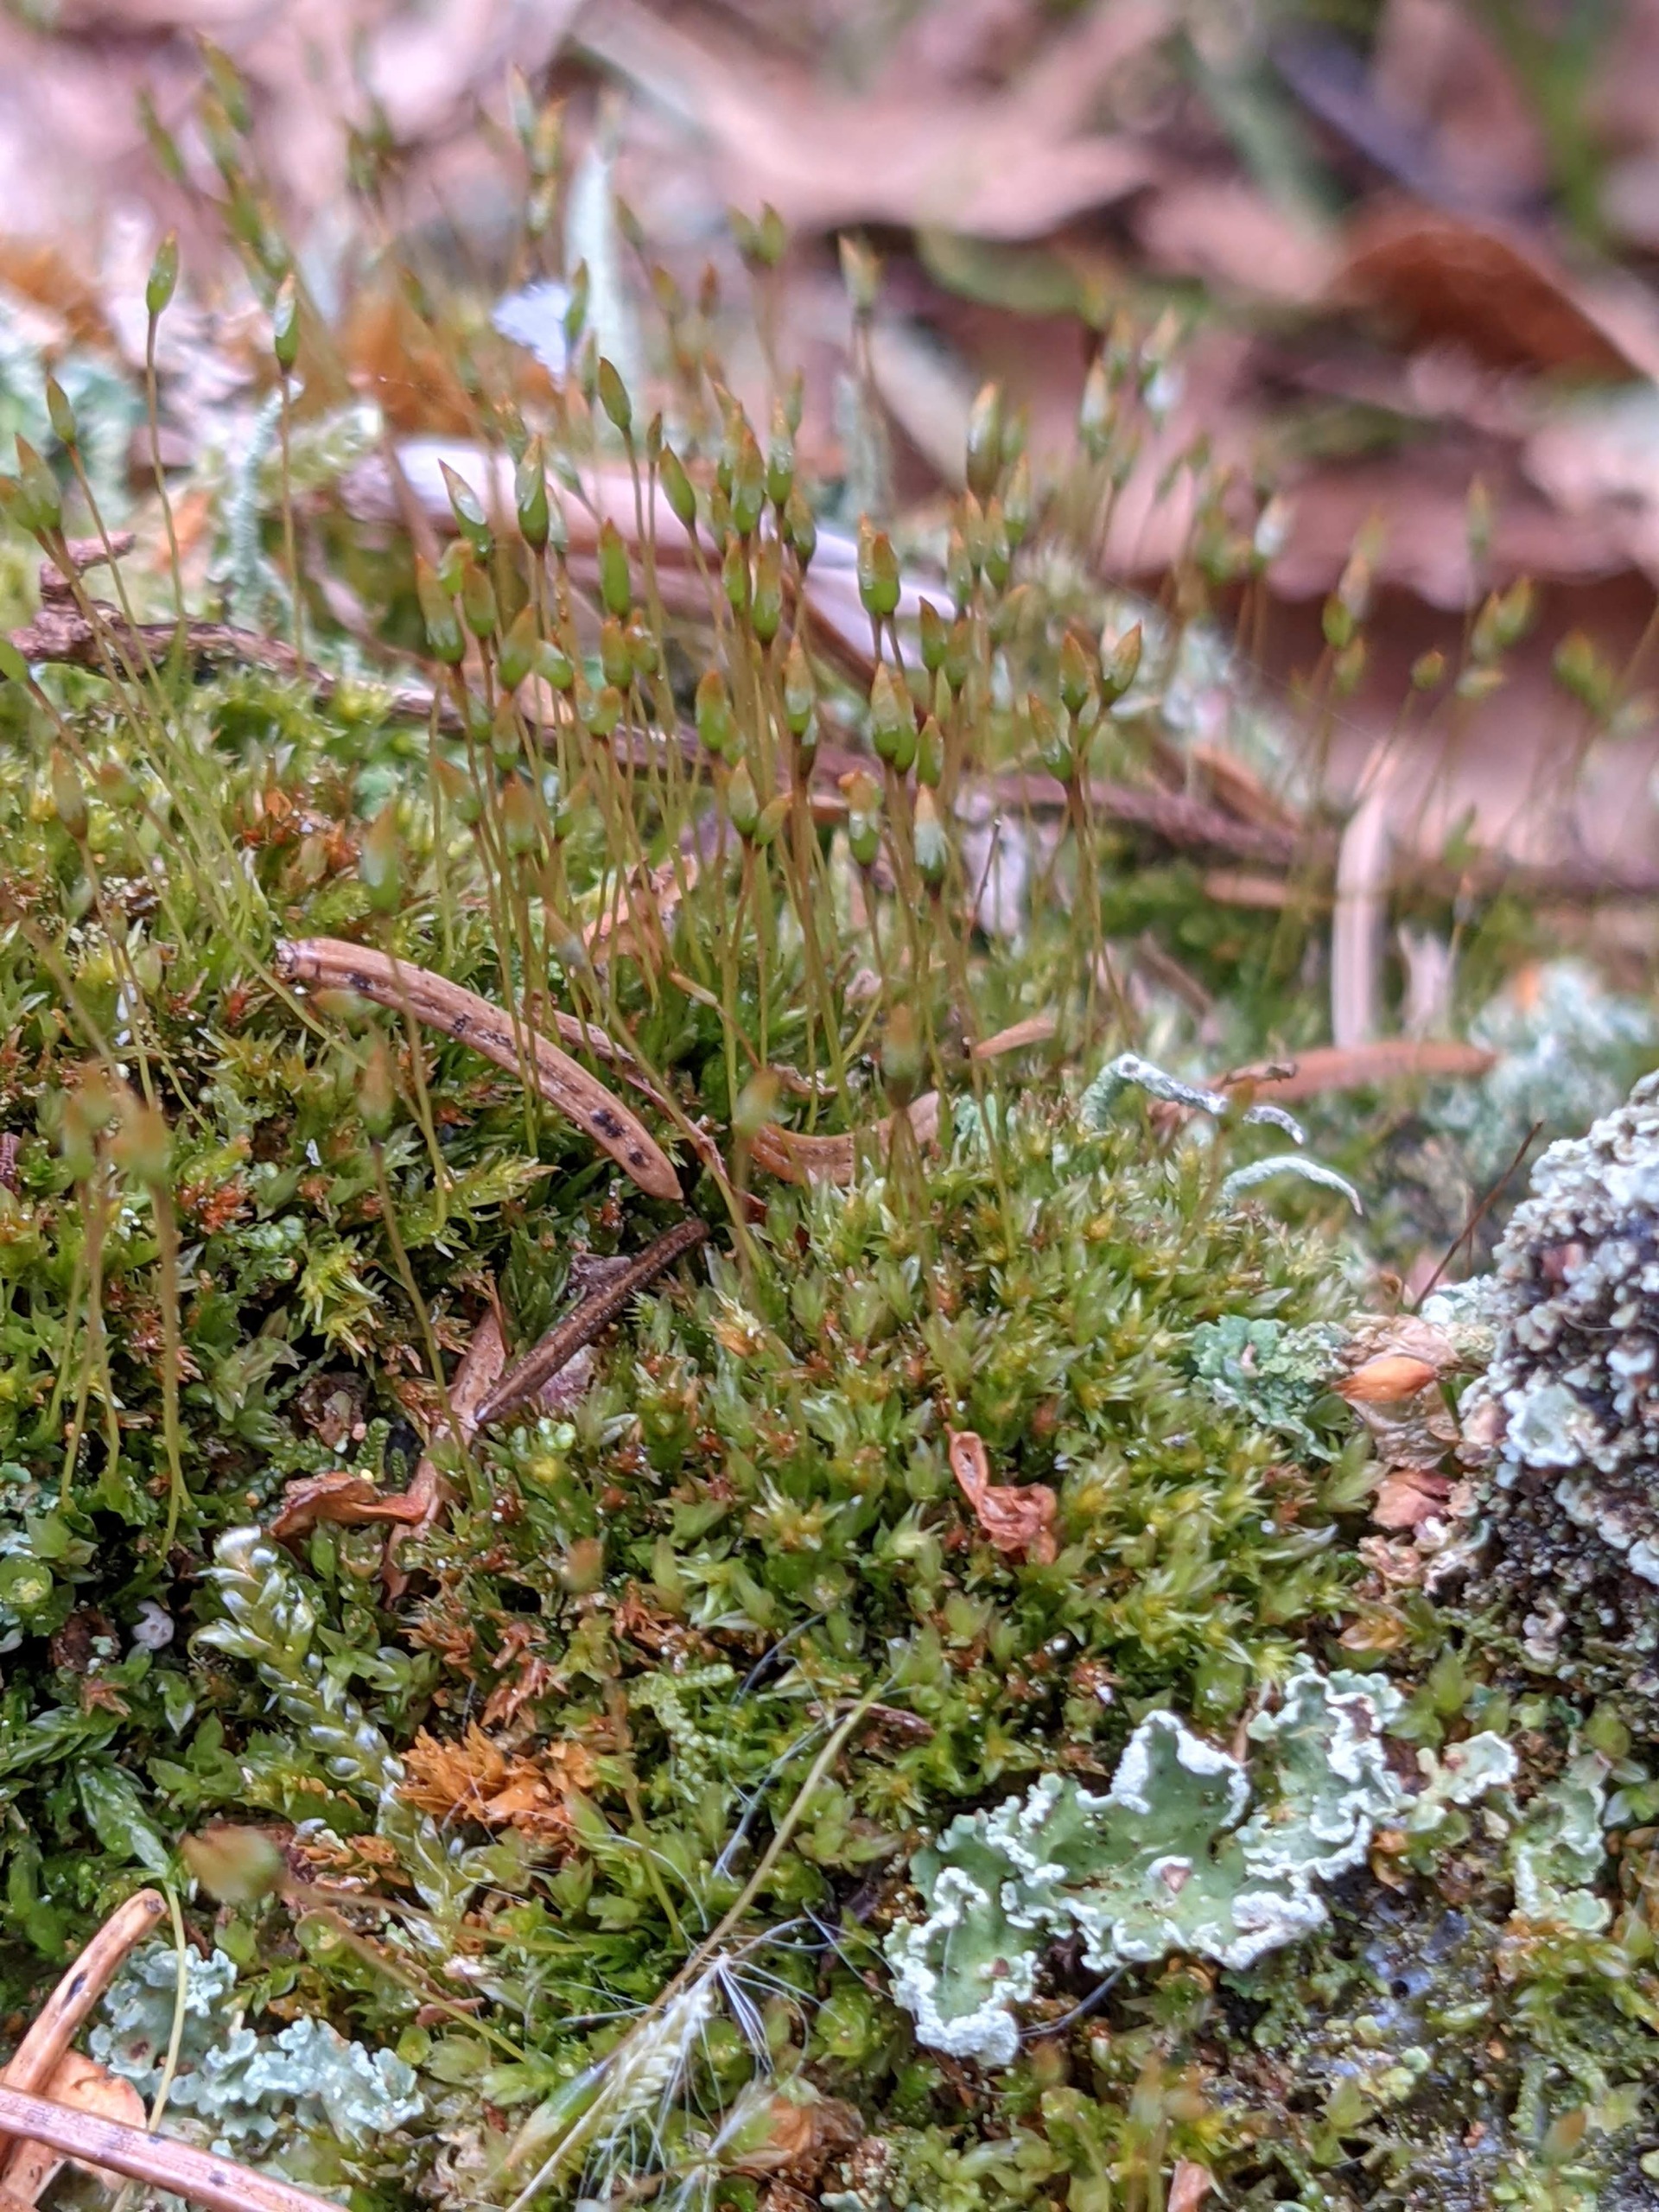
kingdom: Plantae
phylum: Bryophyta
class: Polytrichopsida
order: Tetraphidales
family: Tetraphidaceae
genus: Tetraphis
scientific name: Tetraphis pellucida
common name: Almindelig firtand
